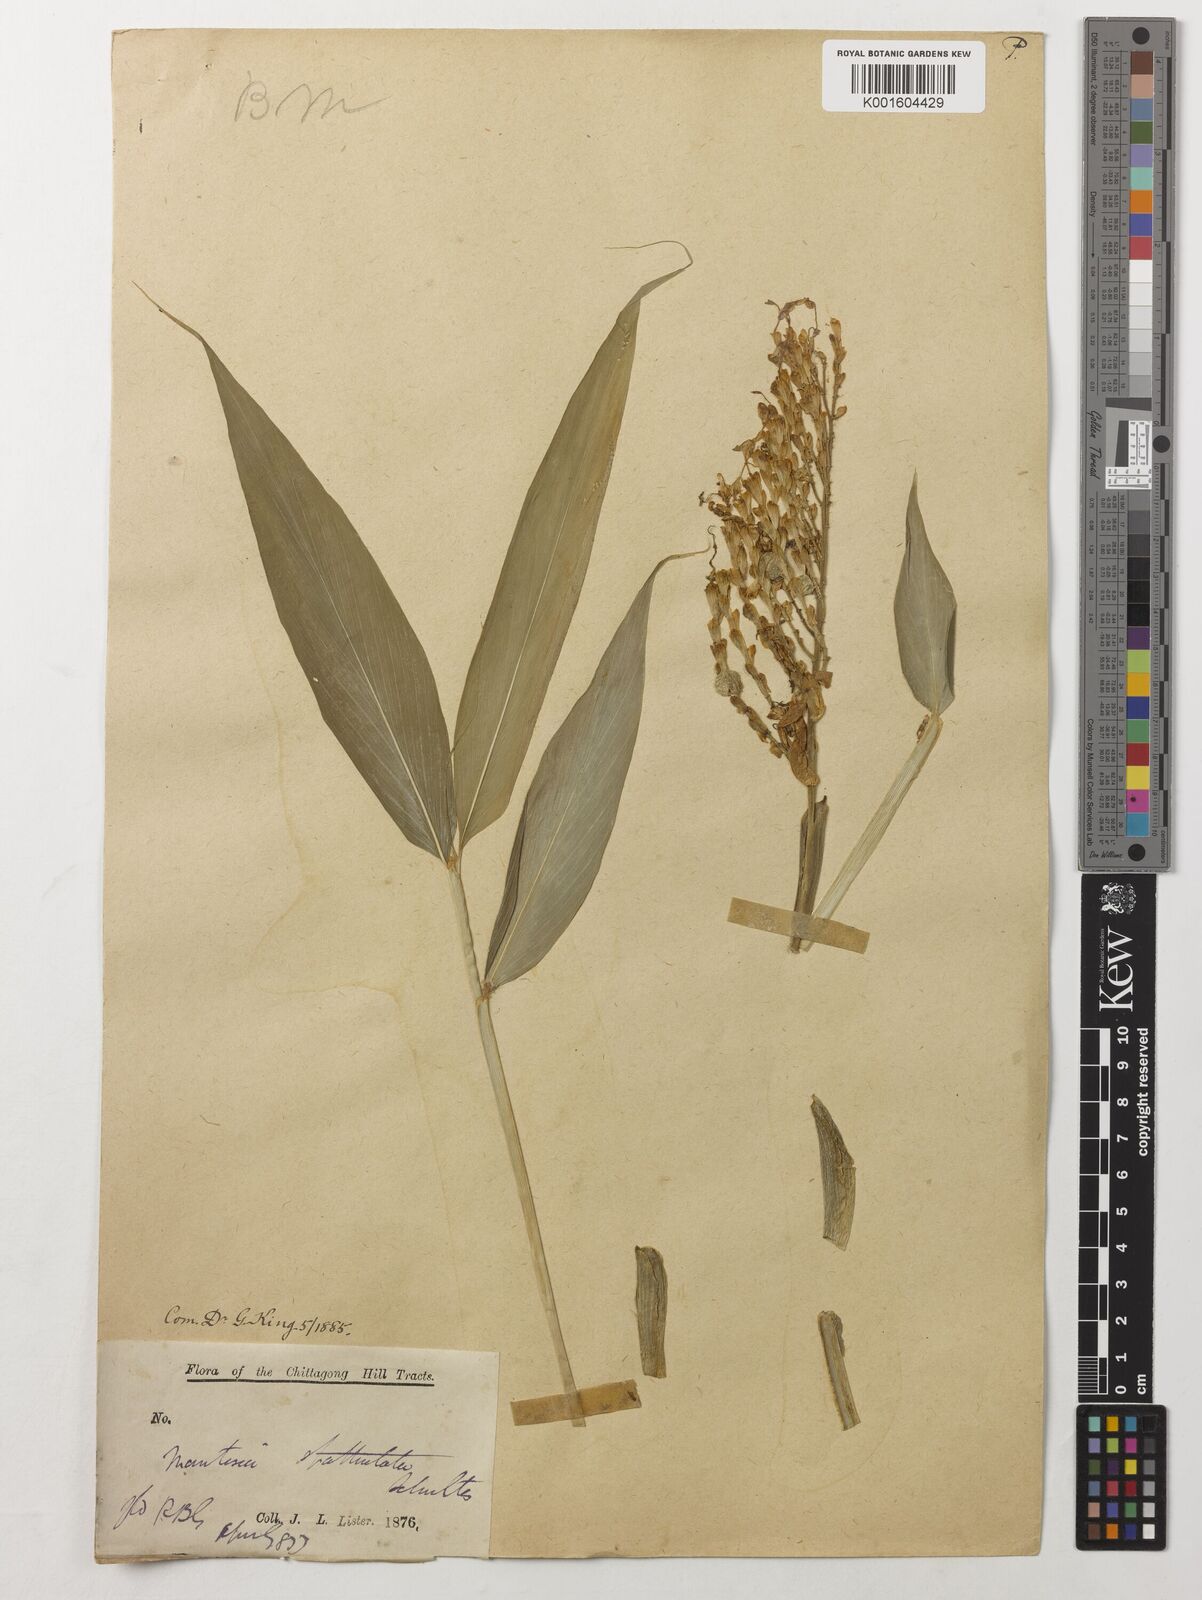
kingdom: Plantae
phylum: Tracheophyta
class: Liliopsida
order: Zingiberales
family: Zingiberaceae
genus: Globba
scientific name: Globba spathulata
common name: Dancing girl flower
